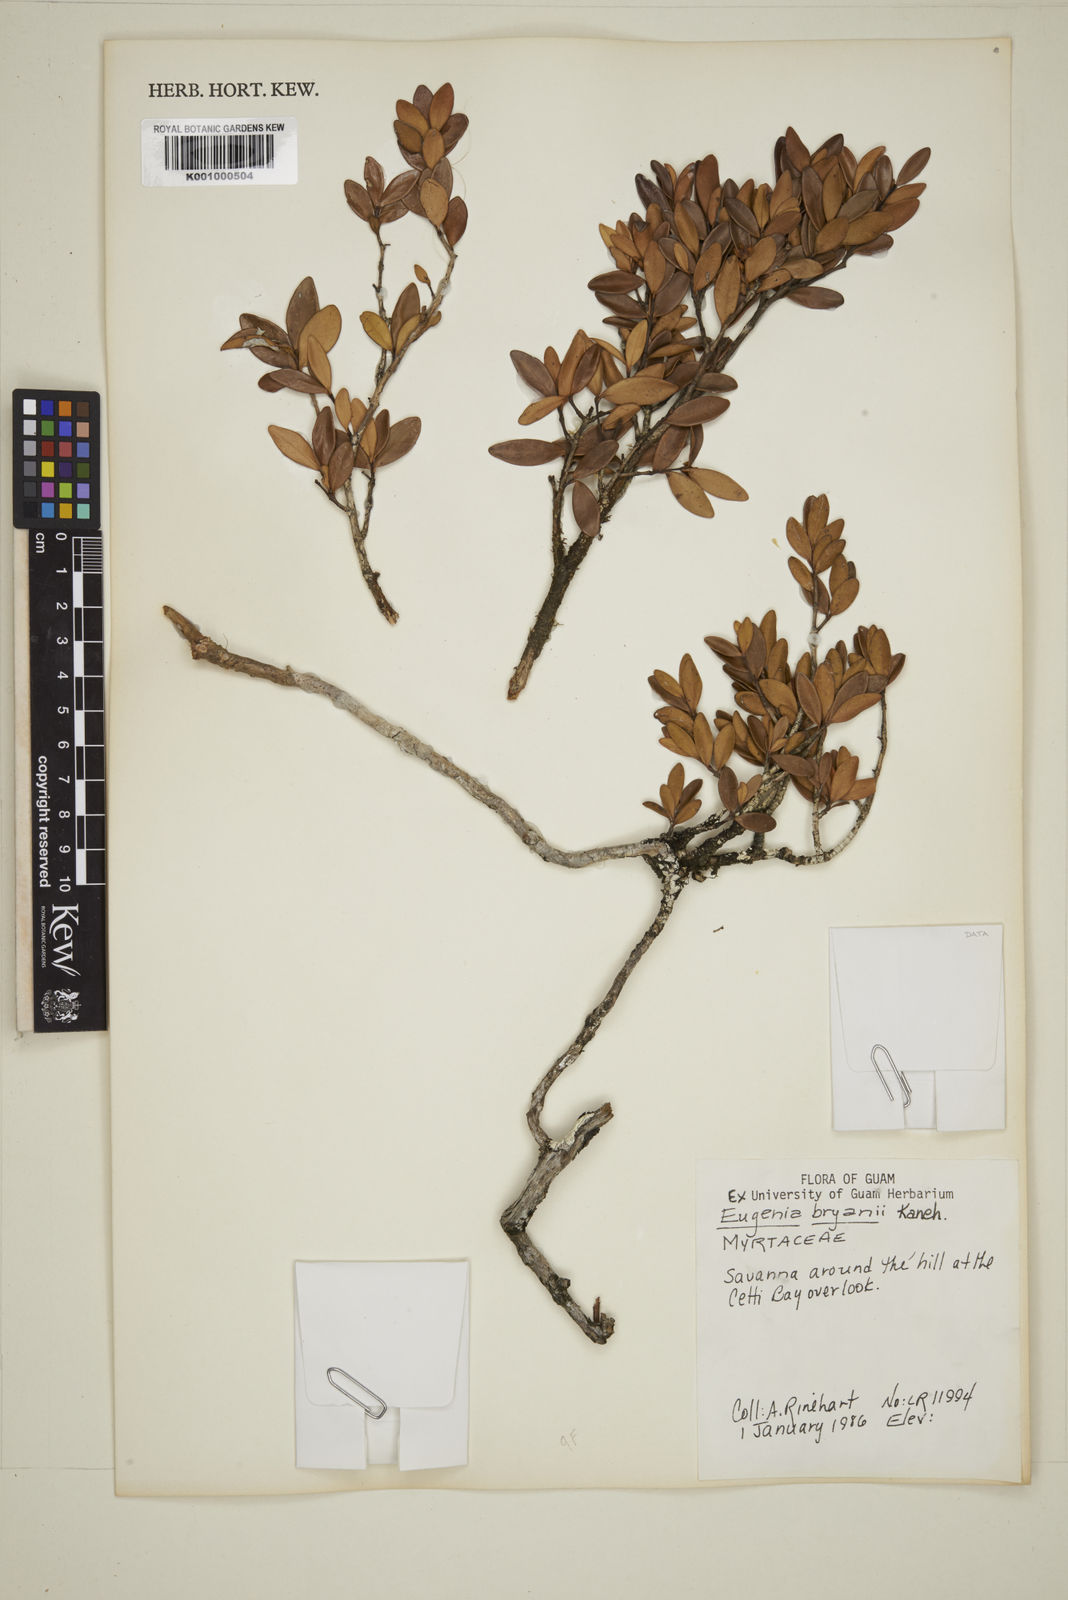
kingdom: Plantae
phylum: Tracheophyta
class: Magnoliopsida
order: Myrtales
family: Myrtaceae
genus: Eugenia
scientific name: Eugenia bryanii
